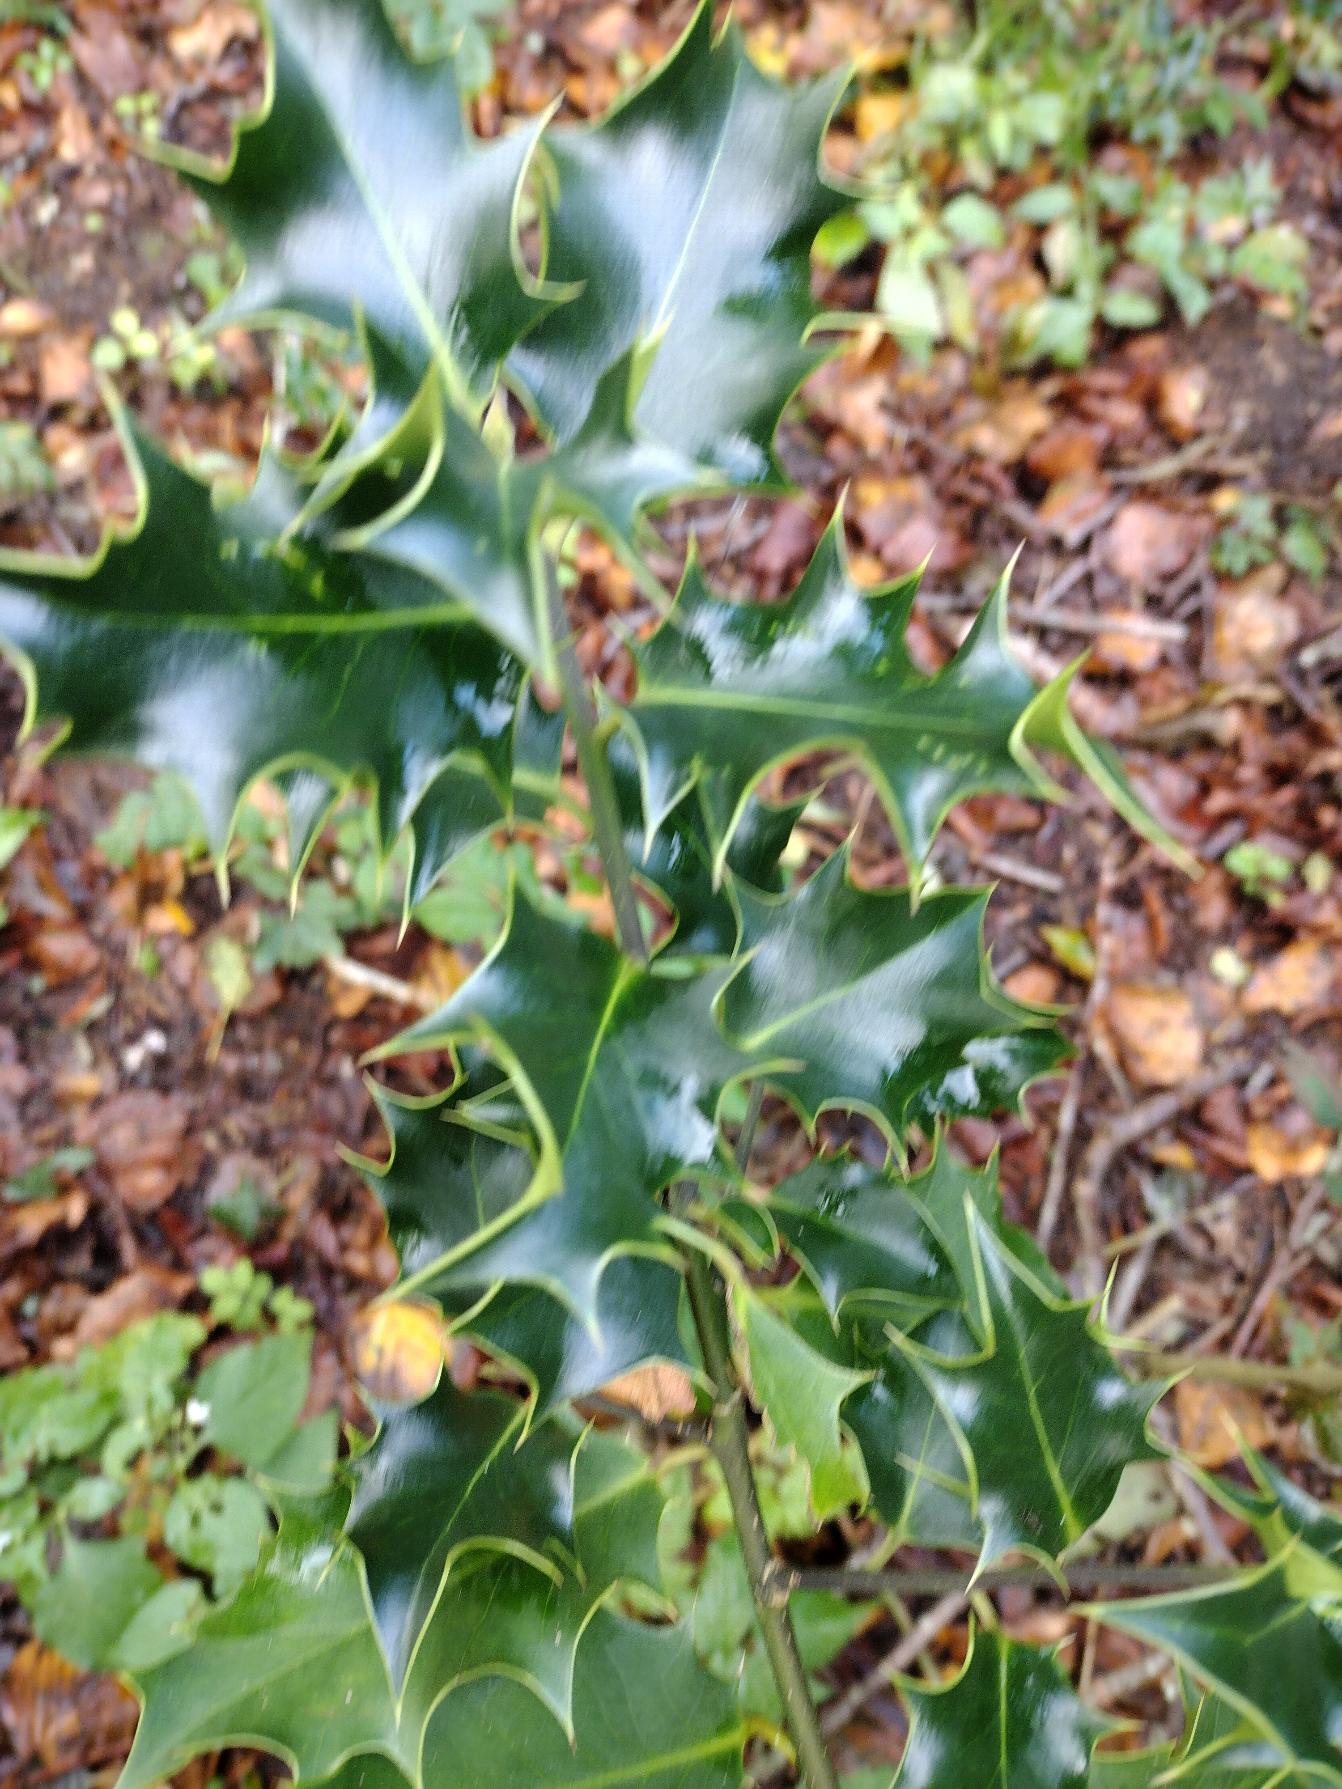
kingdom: Plantae
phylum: Tracheophyta
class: Magnoliopsida
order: Aquifoliales
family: Aquifoliaceae
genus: Ilex
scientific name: Ilex aquifolium
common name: Kristtorn
